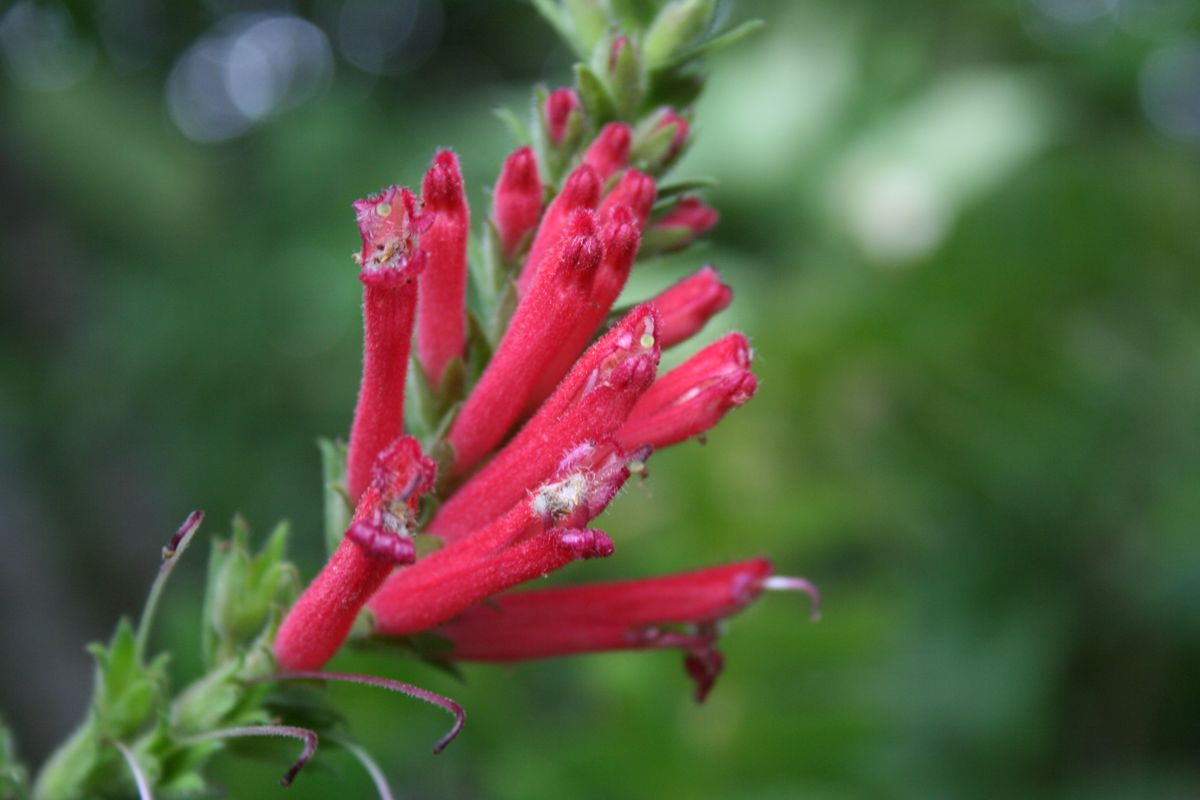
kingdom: Plantae
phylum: Tracheophyta
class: Magnoliopsida
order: Lamiales
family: Orobanchaceae
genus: Lamourouxia
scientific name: Lamourouxia viscosa
